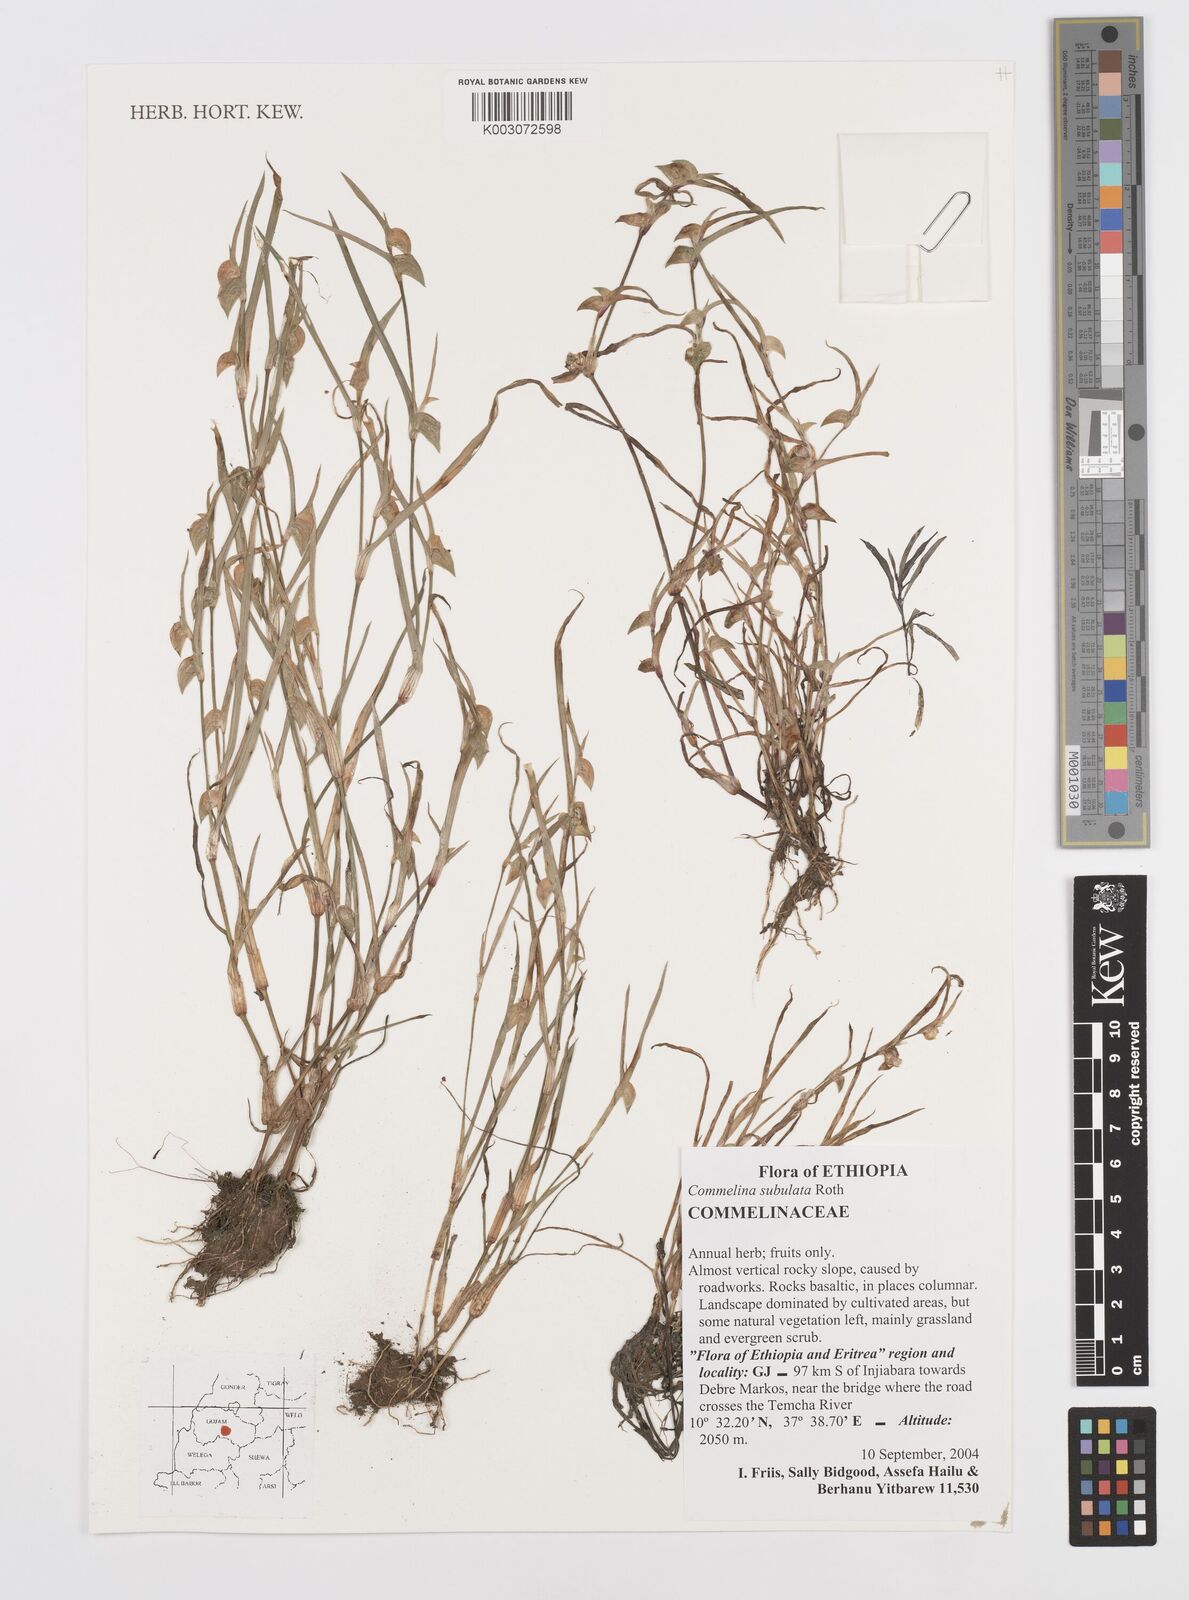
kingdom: Plantae
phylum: Tracheophyta
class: Liliopsida
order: Commelinales
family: Commelinaceae
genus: Commelina
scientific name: Commelina subulata
